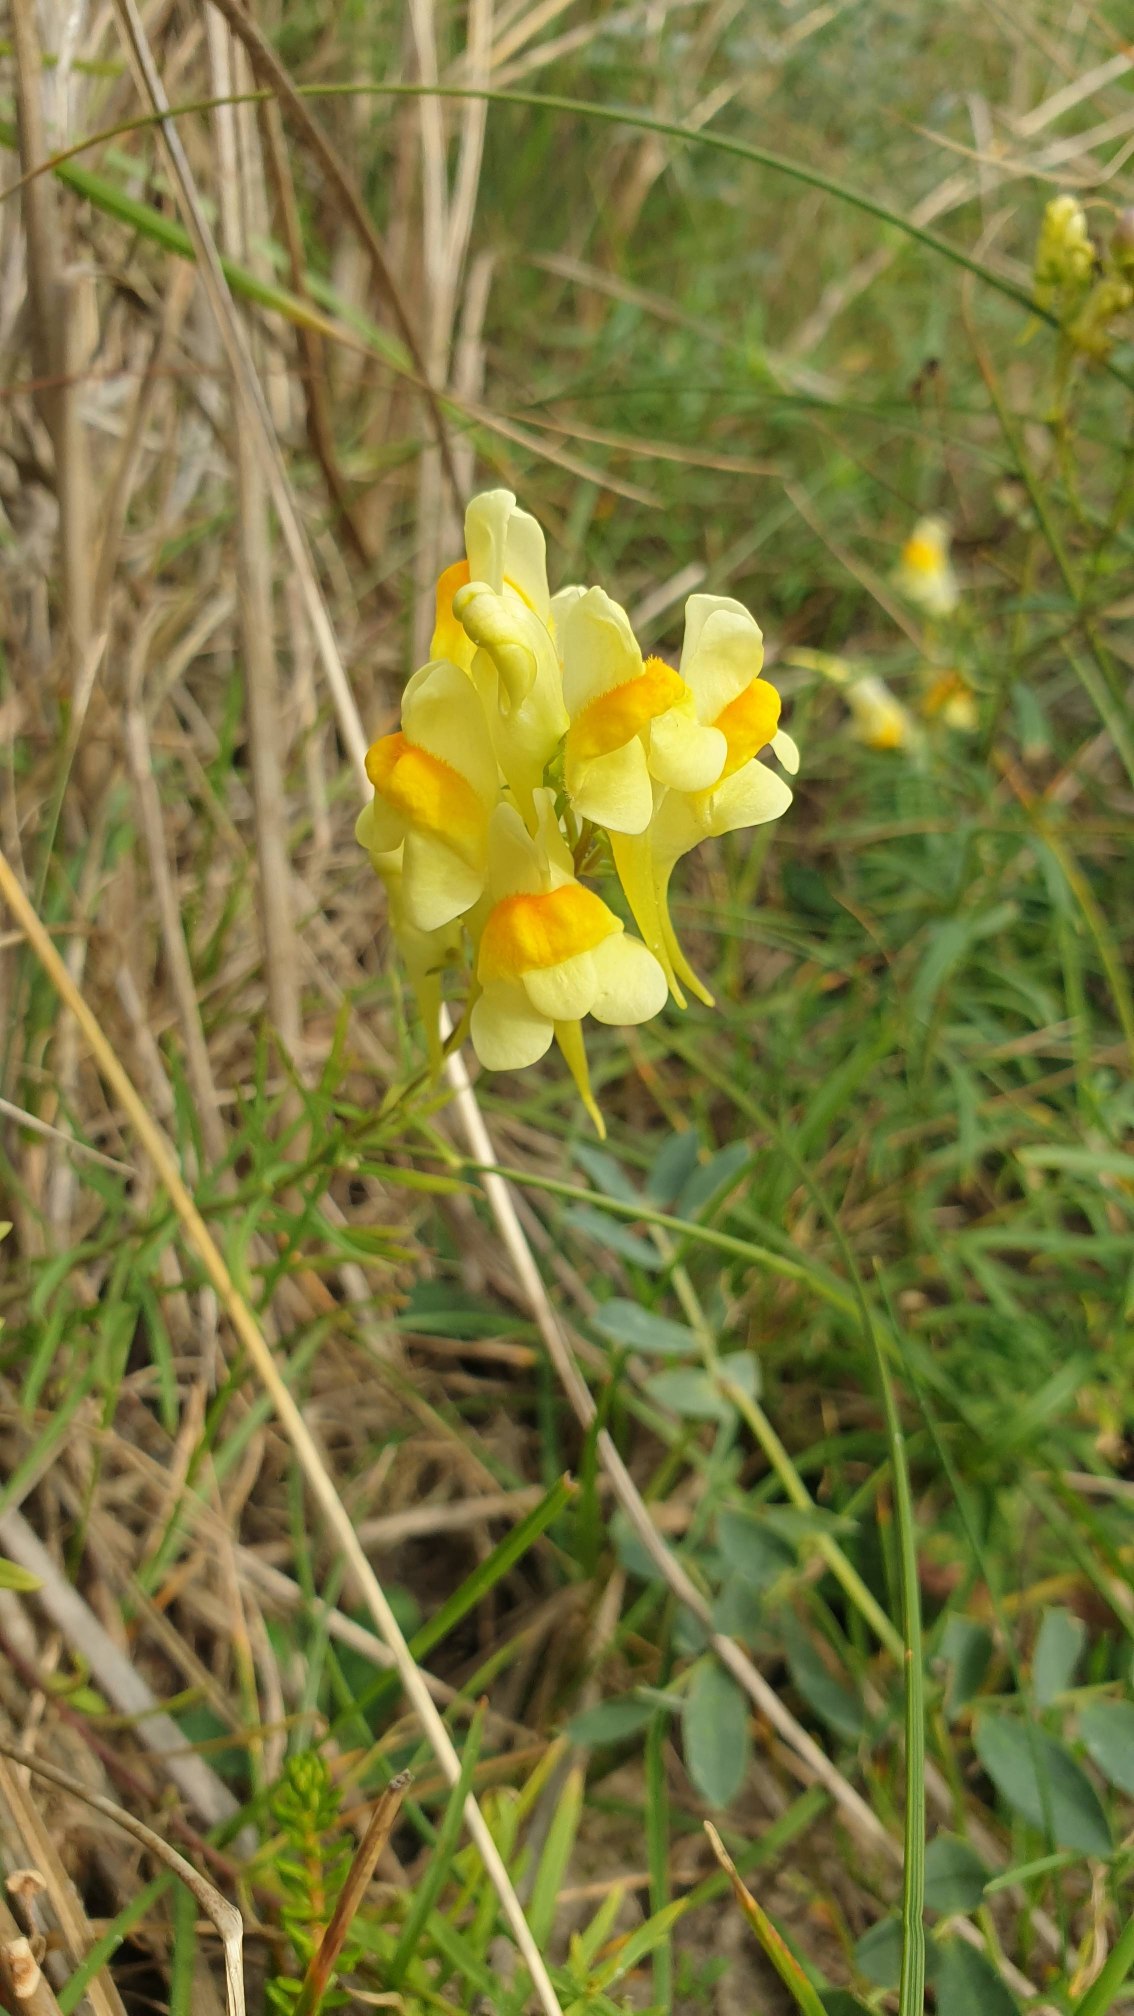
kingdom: Plantae
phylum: Tracheophyta
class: Magnoliopsida
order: Lamiales
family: Plantaginaceae
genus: Linaria
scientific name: Linaria vulgaris
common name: Almindelig torskemund
